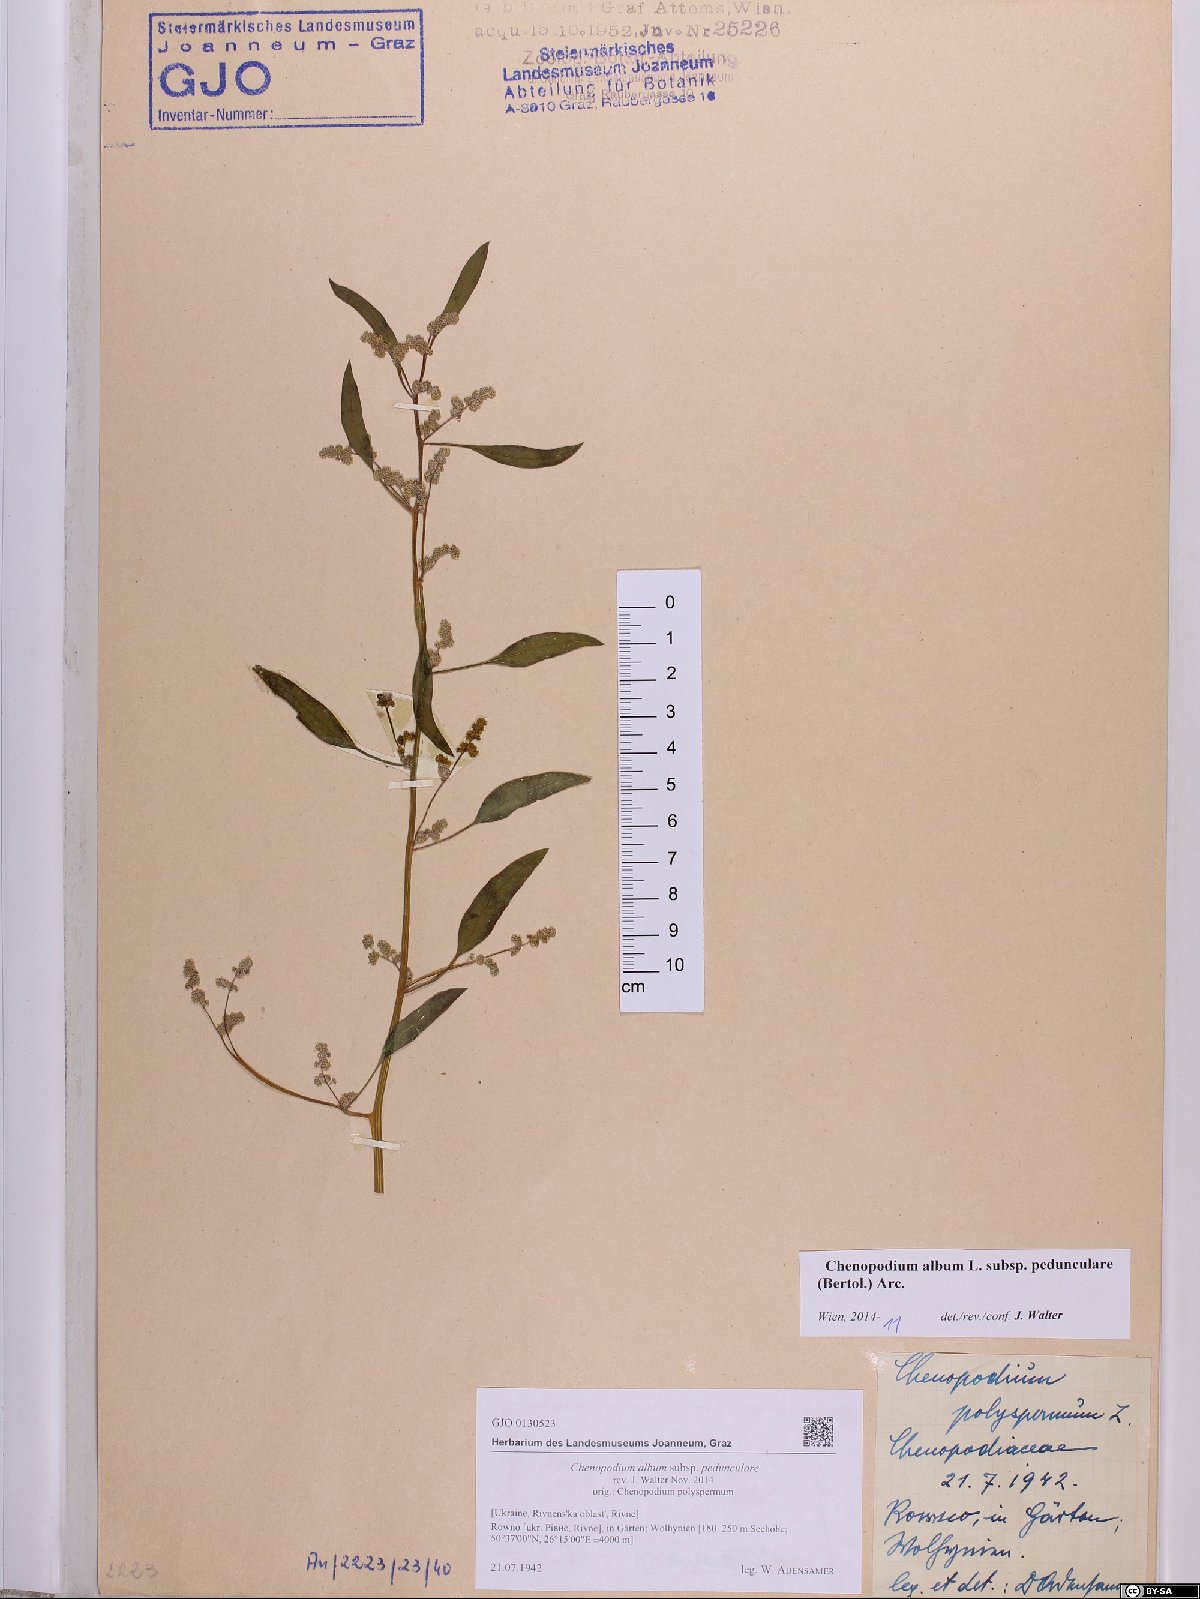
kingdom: Plantae
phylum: Tracheophyta
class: Magnoliopsida
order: Caryophyllales
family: Amaranthaceae
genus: Chenopodium
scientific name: Chenopodium album
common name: Fat-hen
